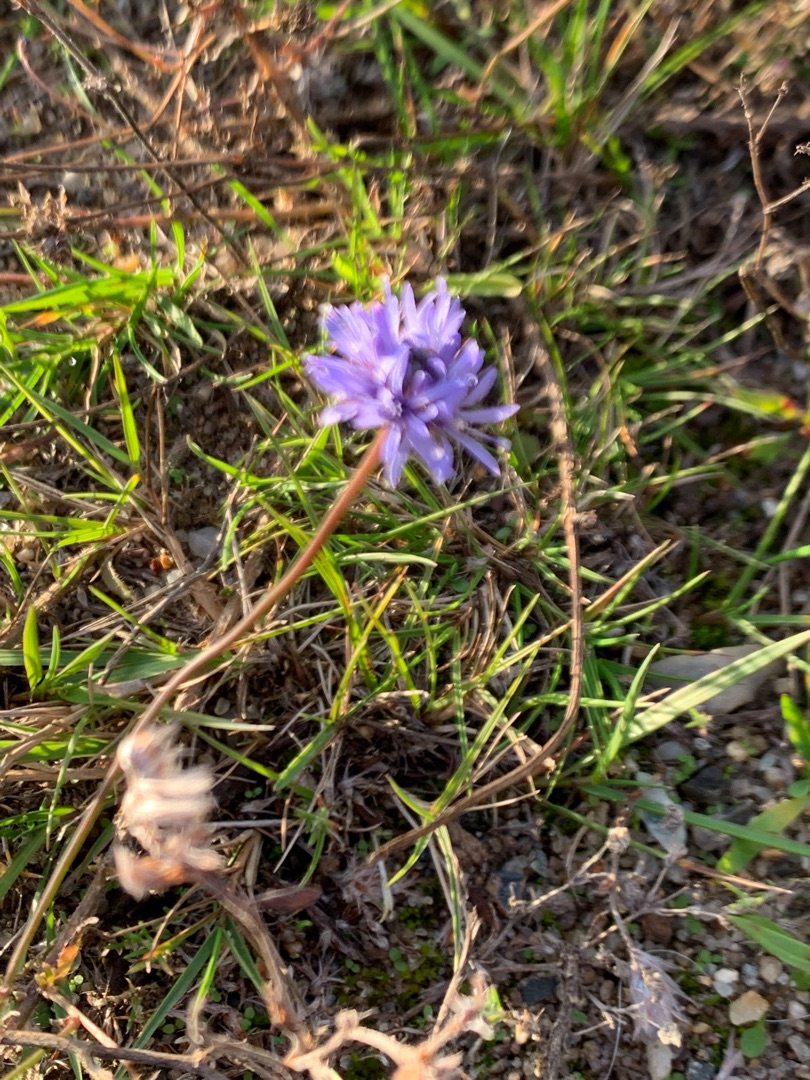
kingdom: Plantae
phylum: Tracheophyta
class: Magnoliopsida
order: Asterales
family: Campanulaceae
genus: Jasione
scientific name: Jasione montana
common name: Blåmunke
